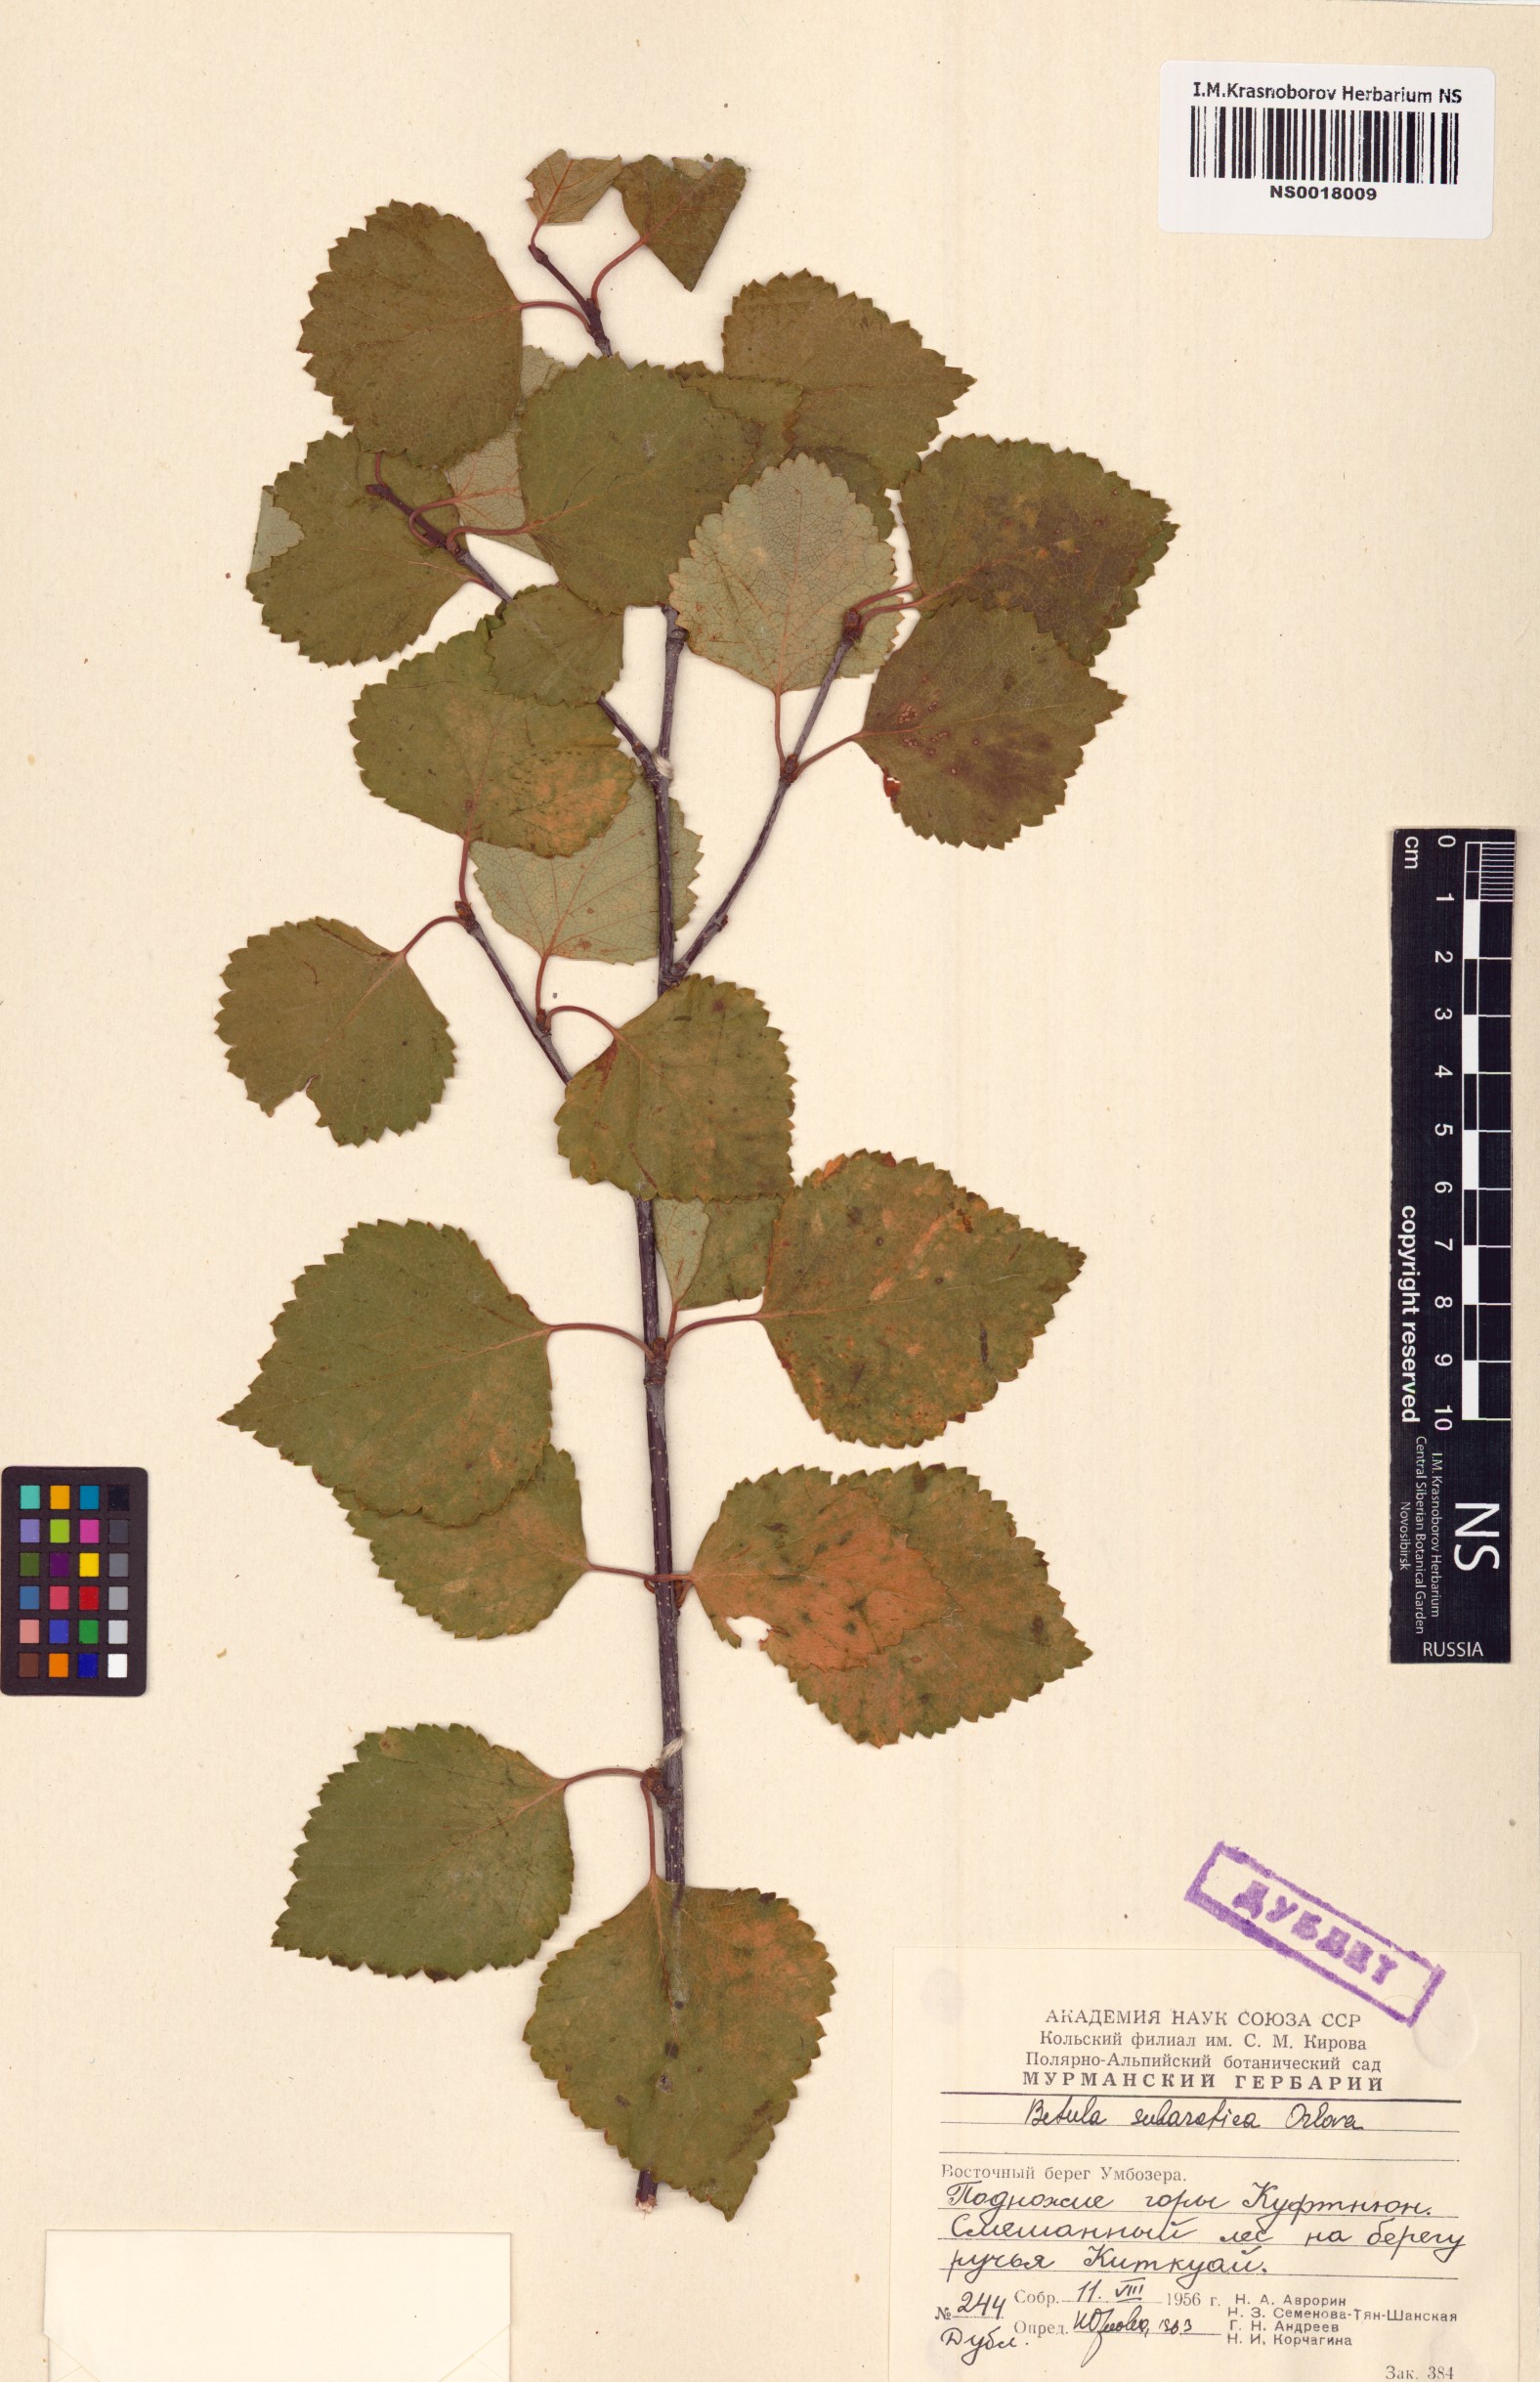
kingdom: Plantae
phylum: Tracheophyta
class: Magnoliopsida
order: Fagales
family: Betulaceae
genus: Betula
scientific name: Betula pubescens
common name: Downy birch
